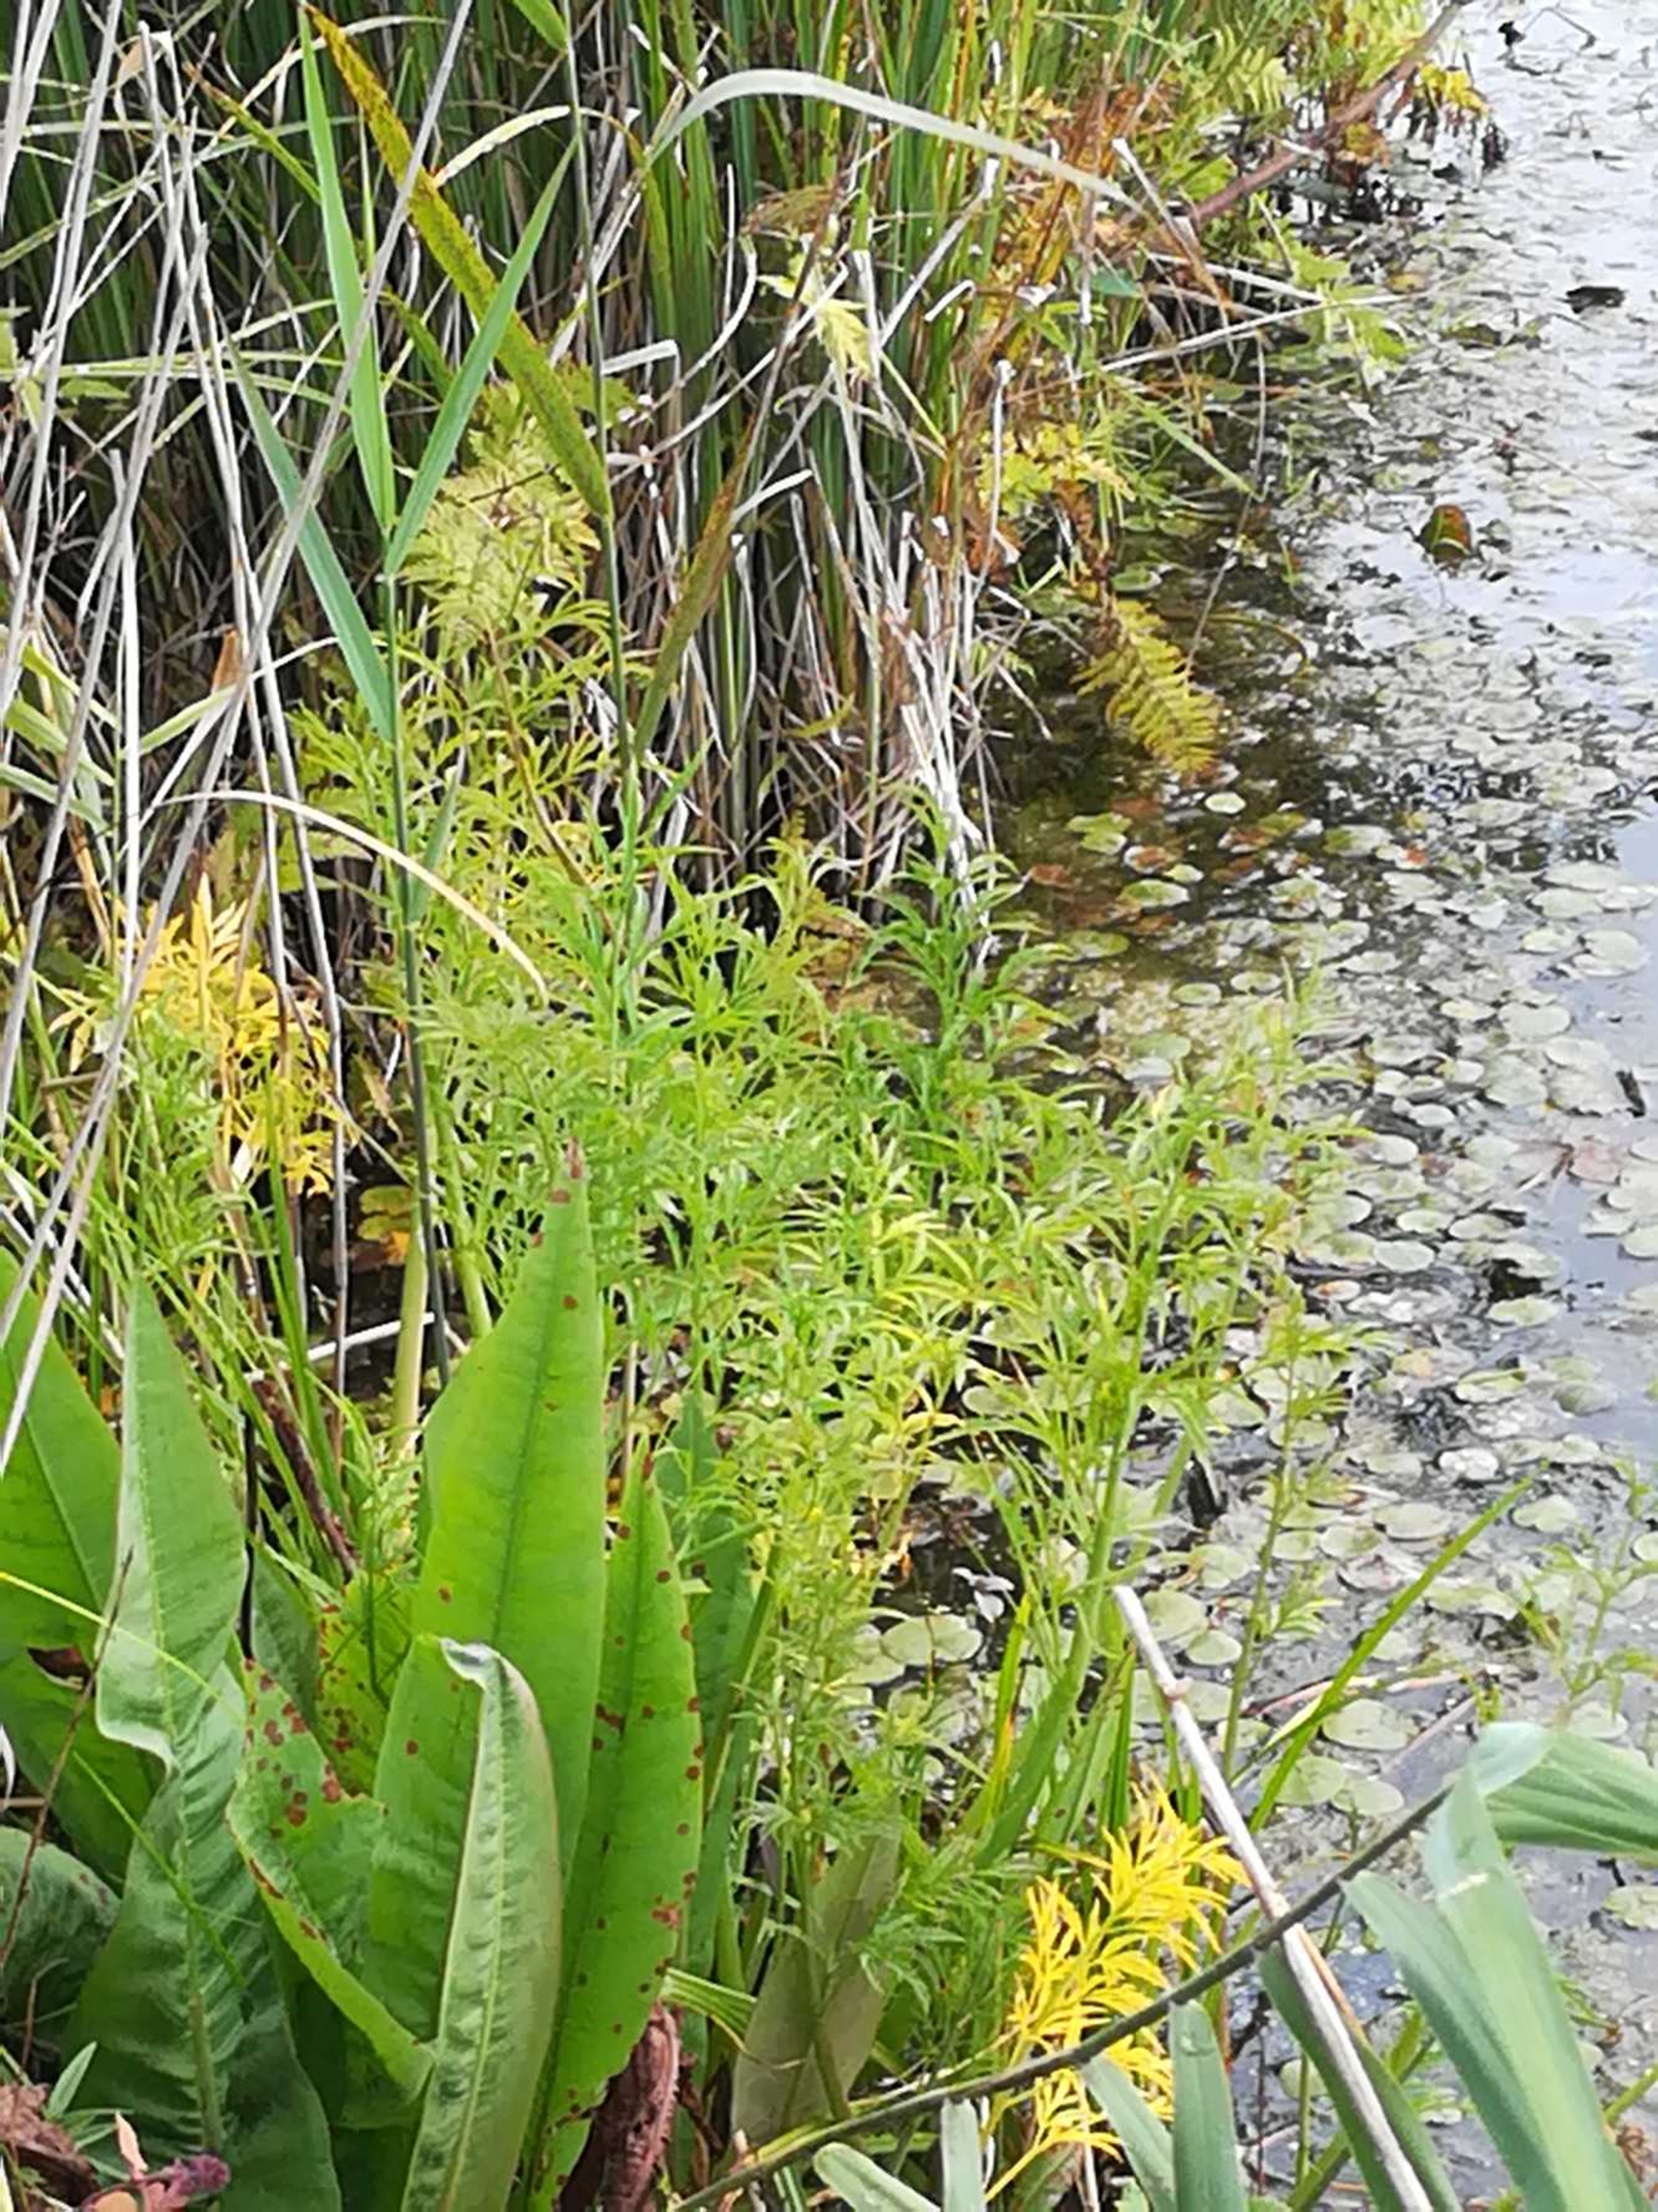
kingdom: Plantae
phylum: Tracheophyta
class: Magnoliopsida
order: Apiales
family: Apiaceae
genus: Cicuta
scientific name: Cicuta virosa
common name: Gifttyde
